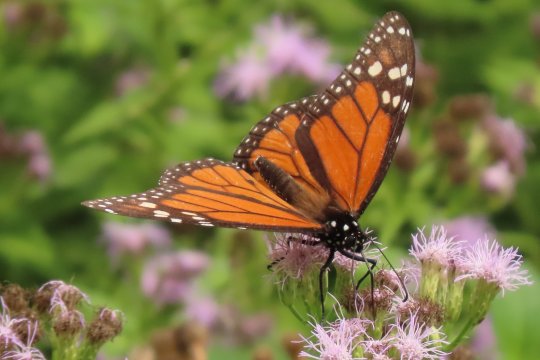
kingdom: Animalia
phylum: Arthropoda
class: Insecta
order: Lepidoptera
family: Nymphalidae
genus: Danaus
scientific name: Danaus plexippus
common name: Monarch
